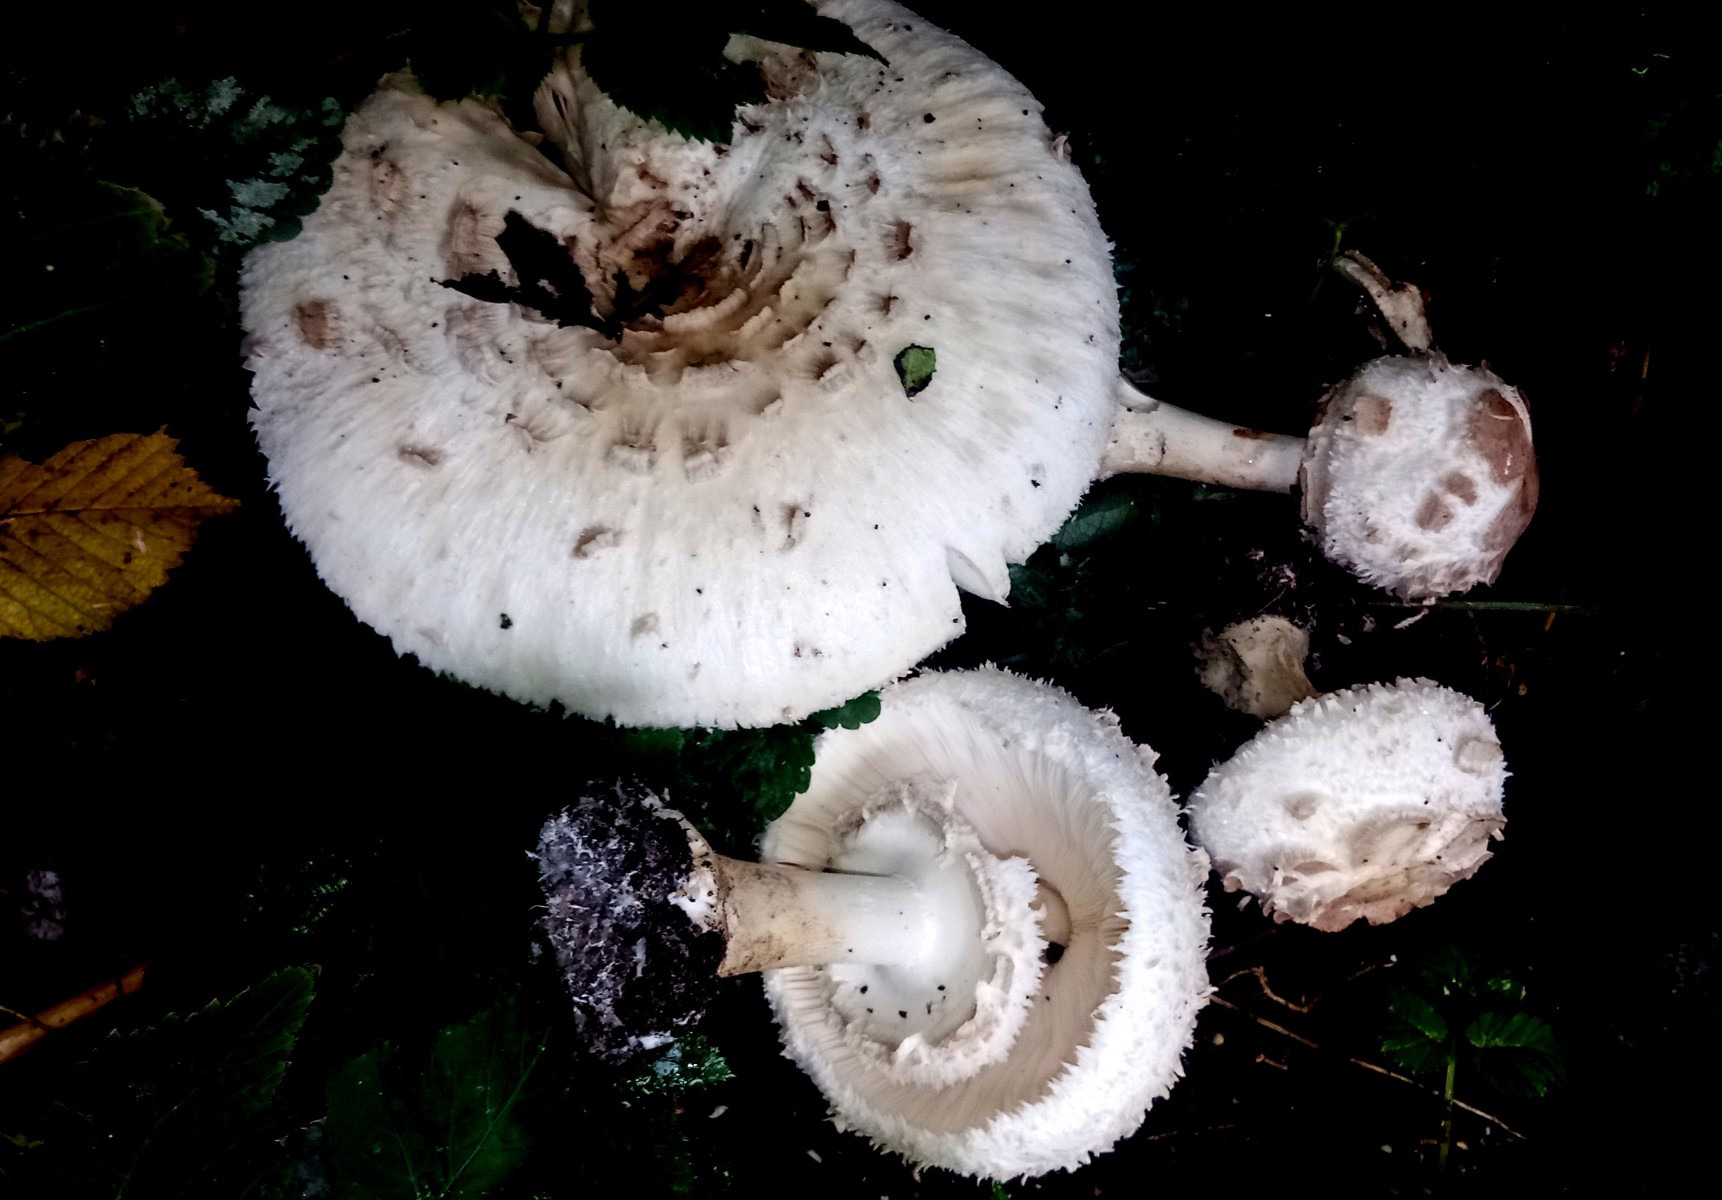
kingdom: Fungi
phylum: Basidiomycota
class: Agaricomycetes
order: Agaricales
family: Agaricaceae
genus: Chlorophyllum
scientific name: Chlorophyllum rhacodes
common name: ægte rabarberhat
